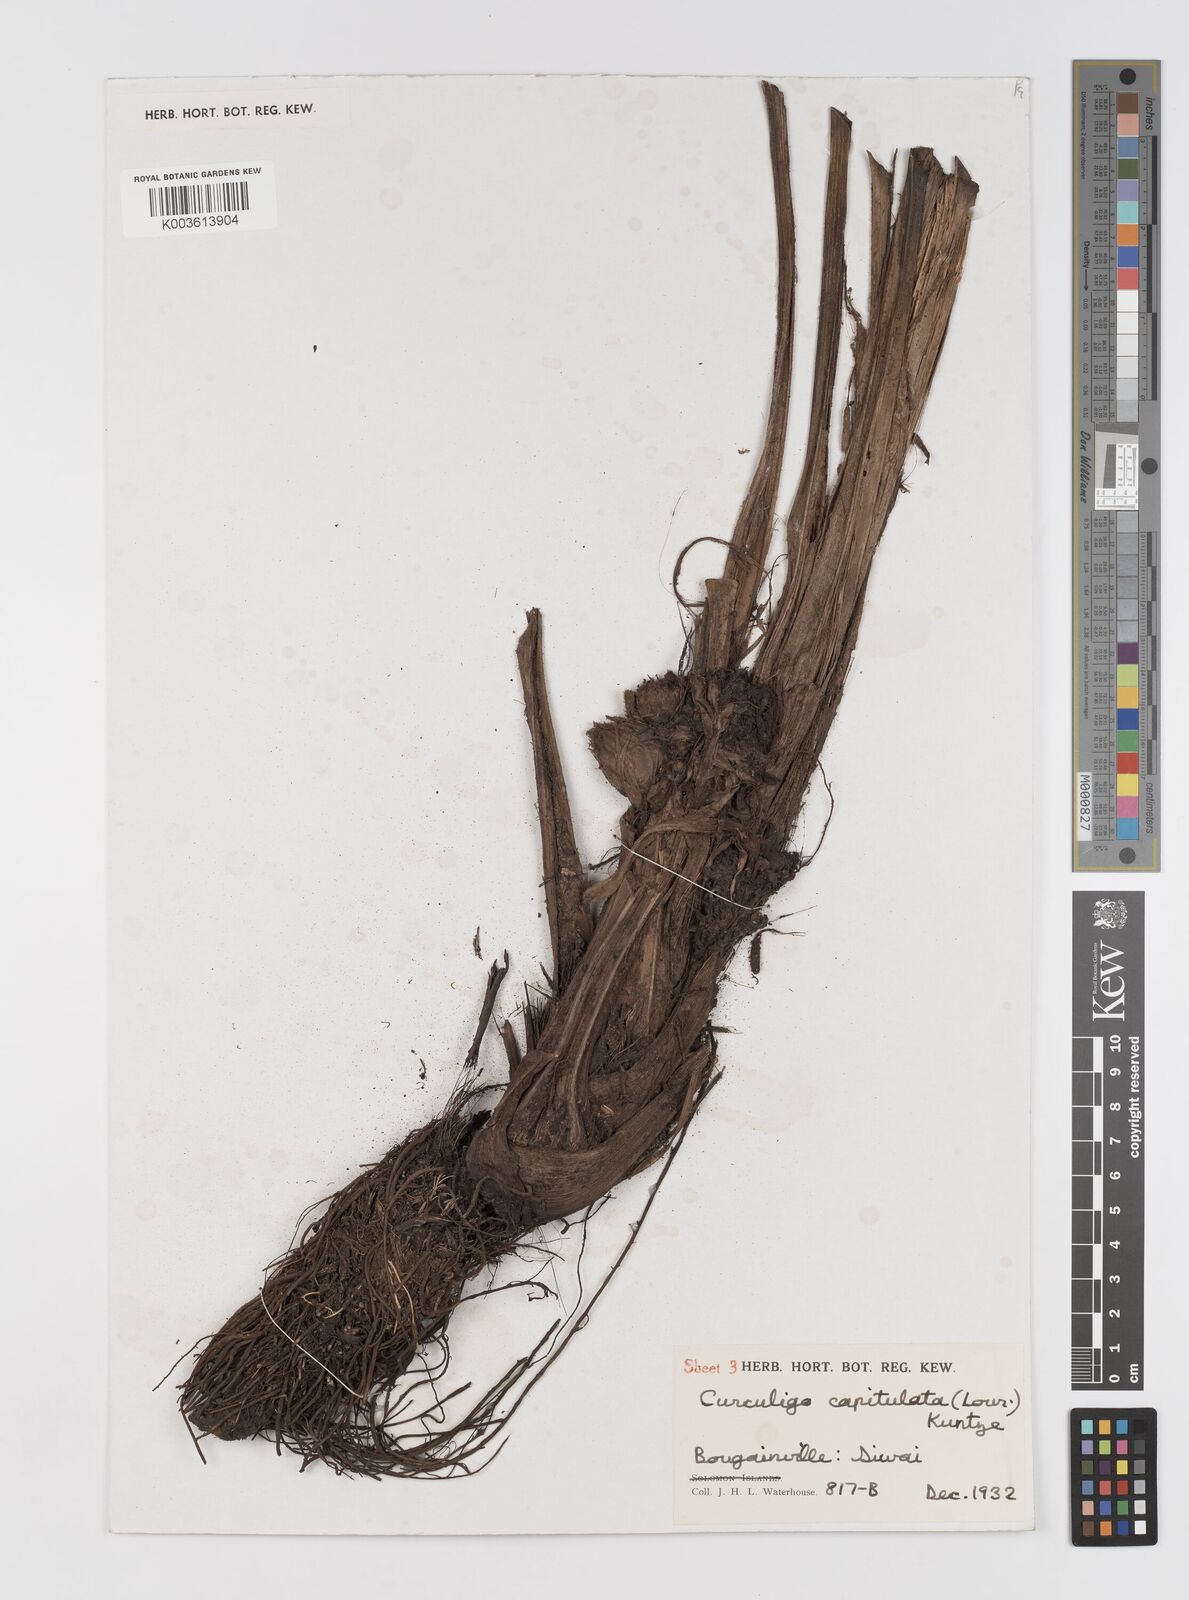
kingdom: Plantae
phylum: Tracheophyta
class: Liliopsida
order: Asparagales
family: Hypoxidaceae
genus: Curculigo
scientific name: Curculigo capitulata
